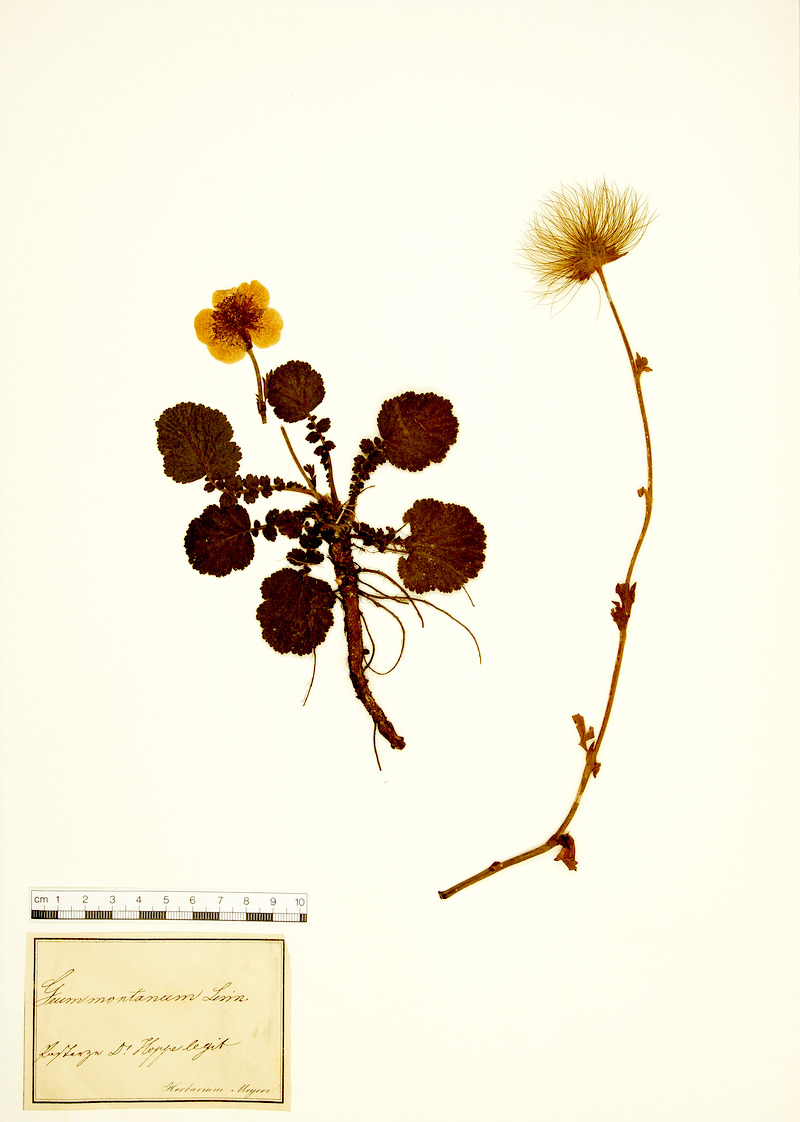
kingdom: Plantae
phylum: Tracheophyta
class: Magnoliopsida
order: Rosales
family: Rosaceae
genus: Geum
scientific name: Geum montanum
